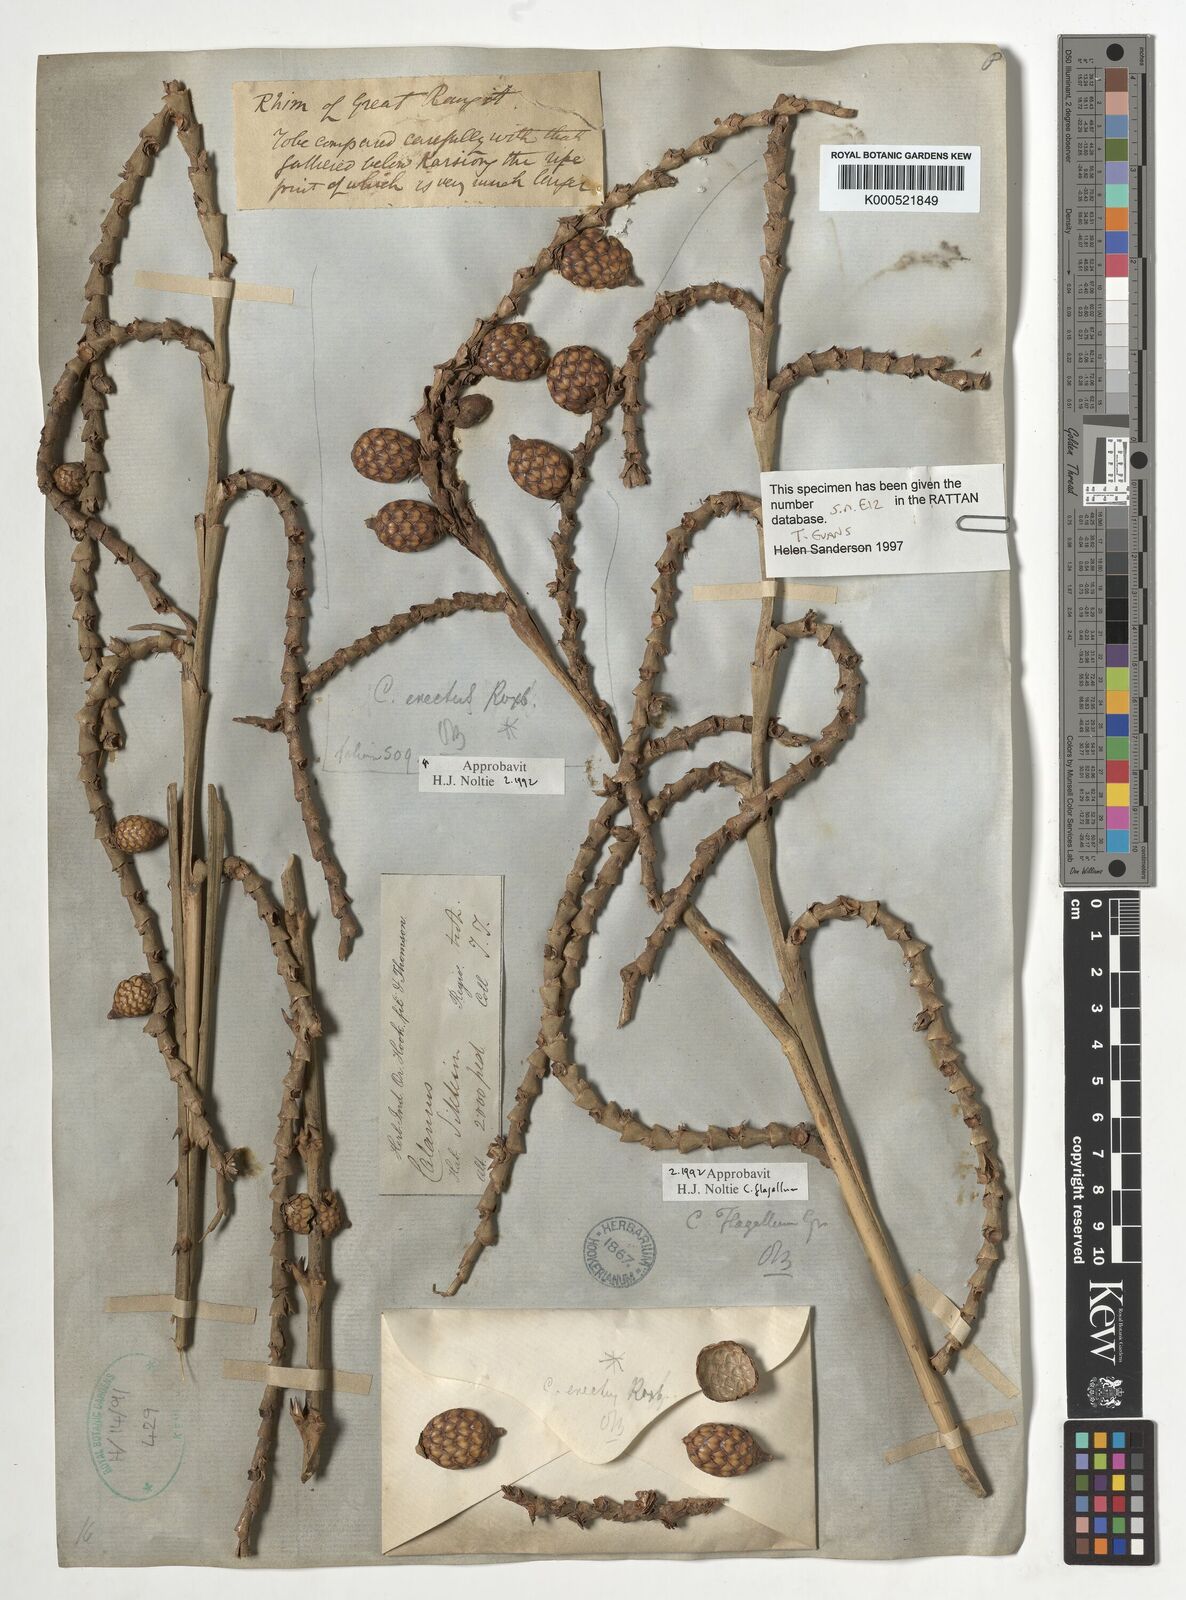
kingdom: Plantae
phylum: Tracheophyta
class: Liliopsida
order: Arecales
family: Arecaceae
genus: Calamus
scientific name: Calamus flagellum
